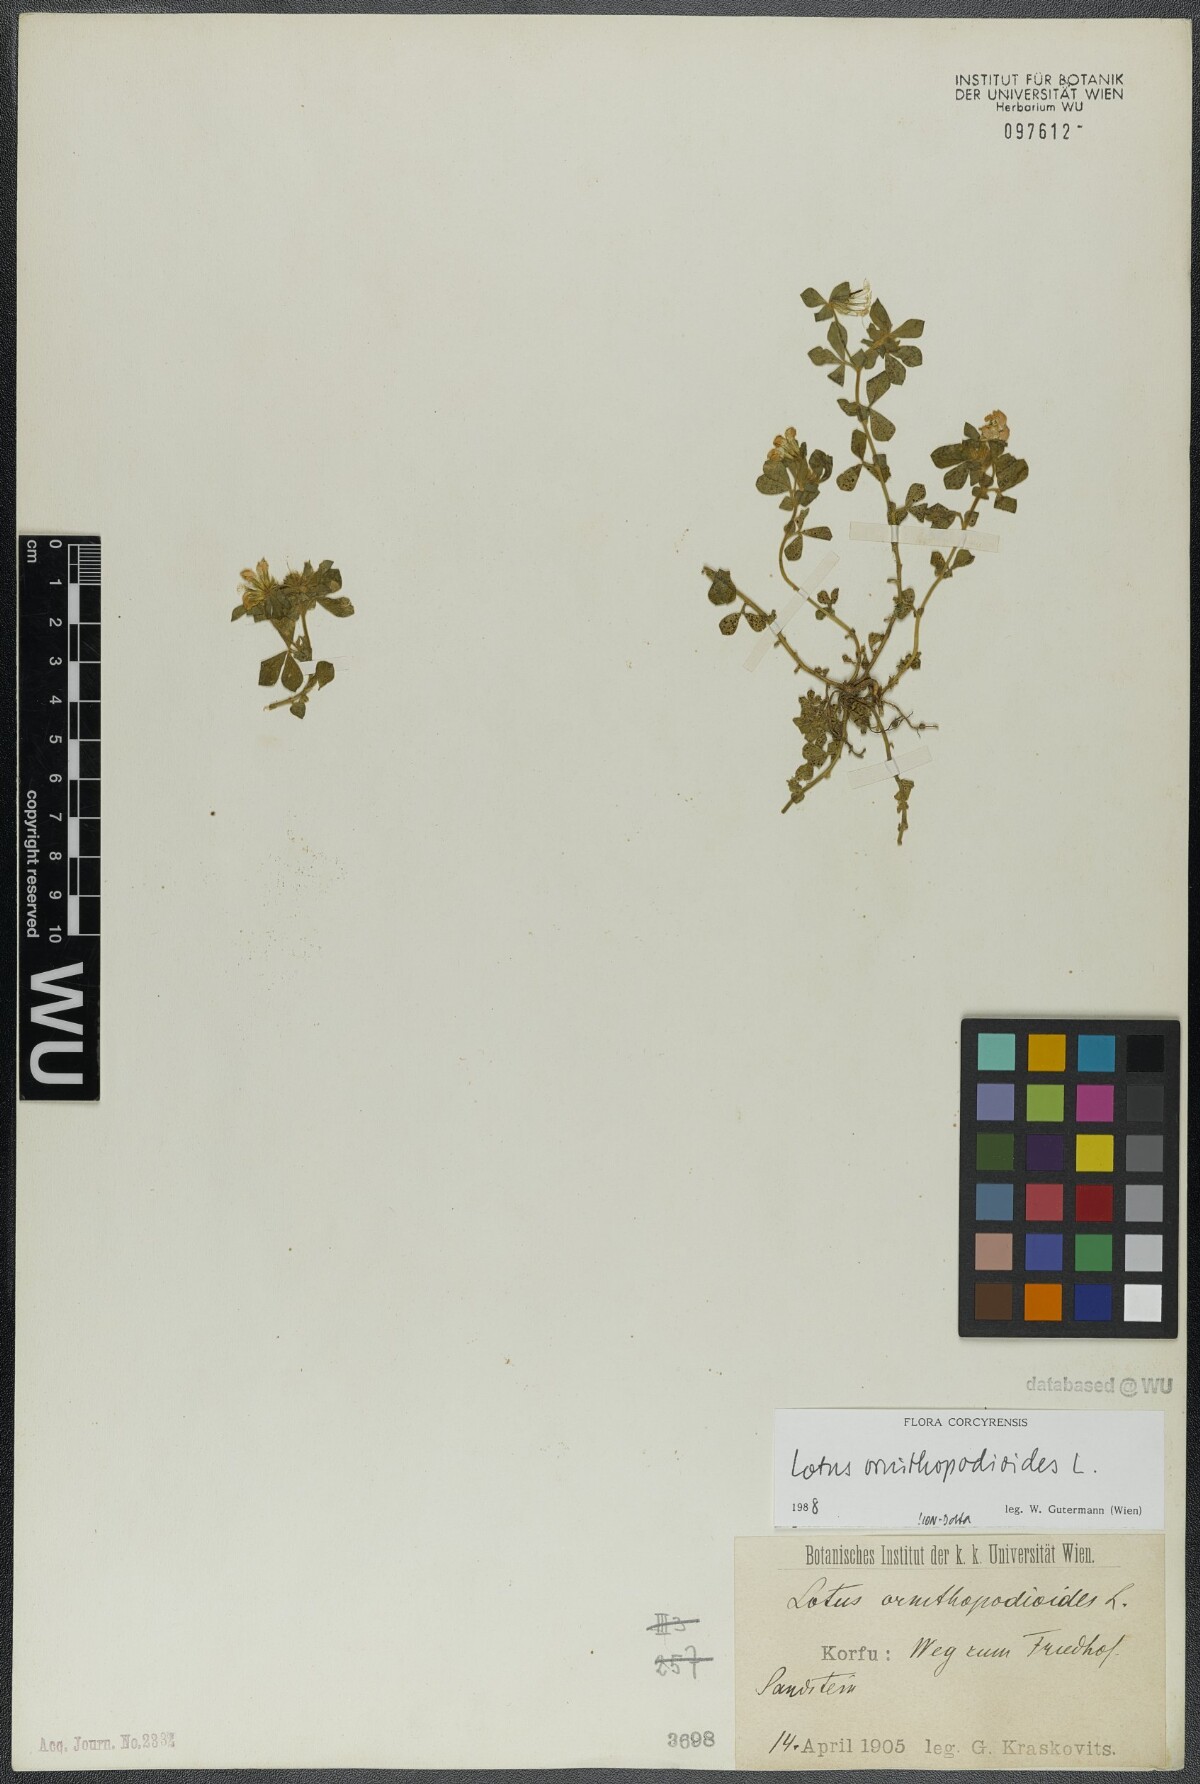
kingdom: Plantae
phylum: Tracheophyta
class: Magnoliopsida
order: Fabales
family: Fabaceae
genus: Lotus
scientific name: Lotus ornithopodioides
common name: Southern bird's-foot trefoil
